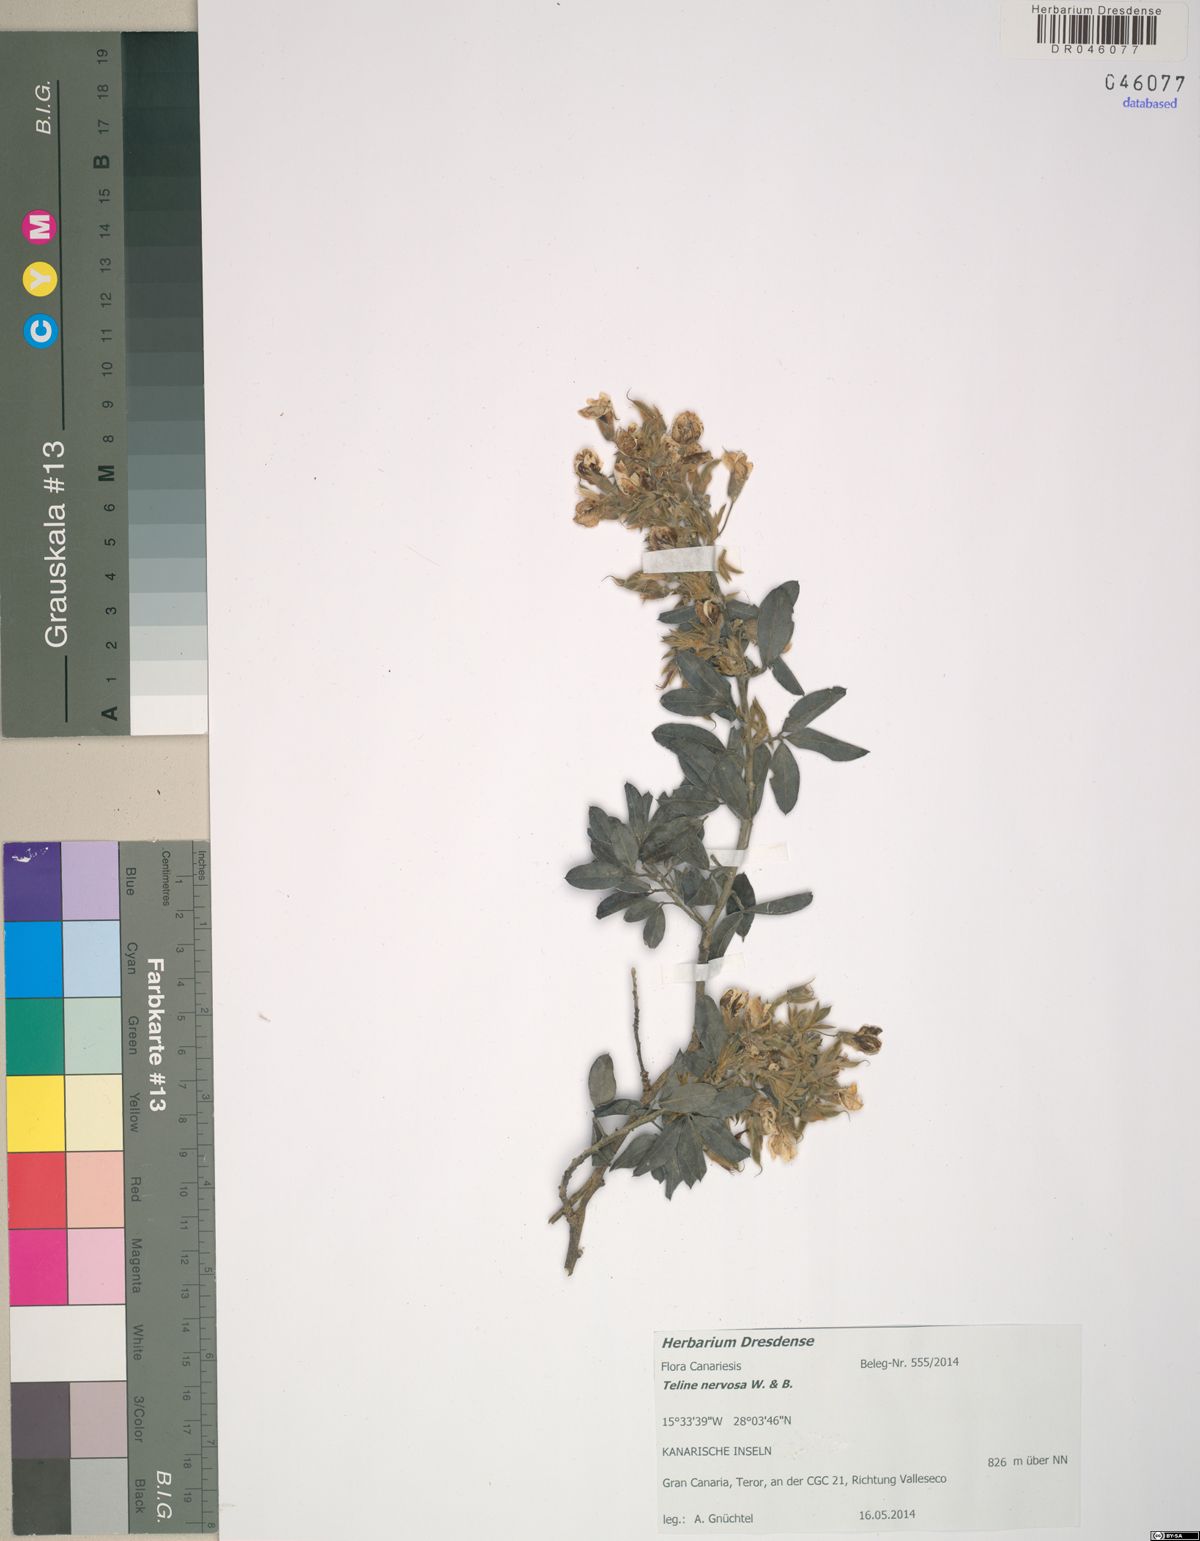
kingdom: Plantae
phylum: Tracheophyta
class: Magnoliopsida
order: Fabales
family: Fabaceae
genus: Rivasgodaya
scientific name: Rivasgodaya nervosa
